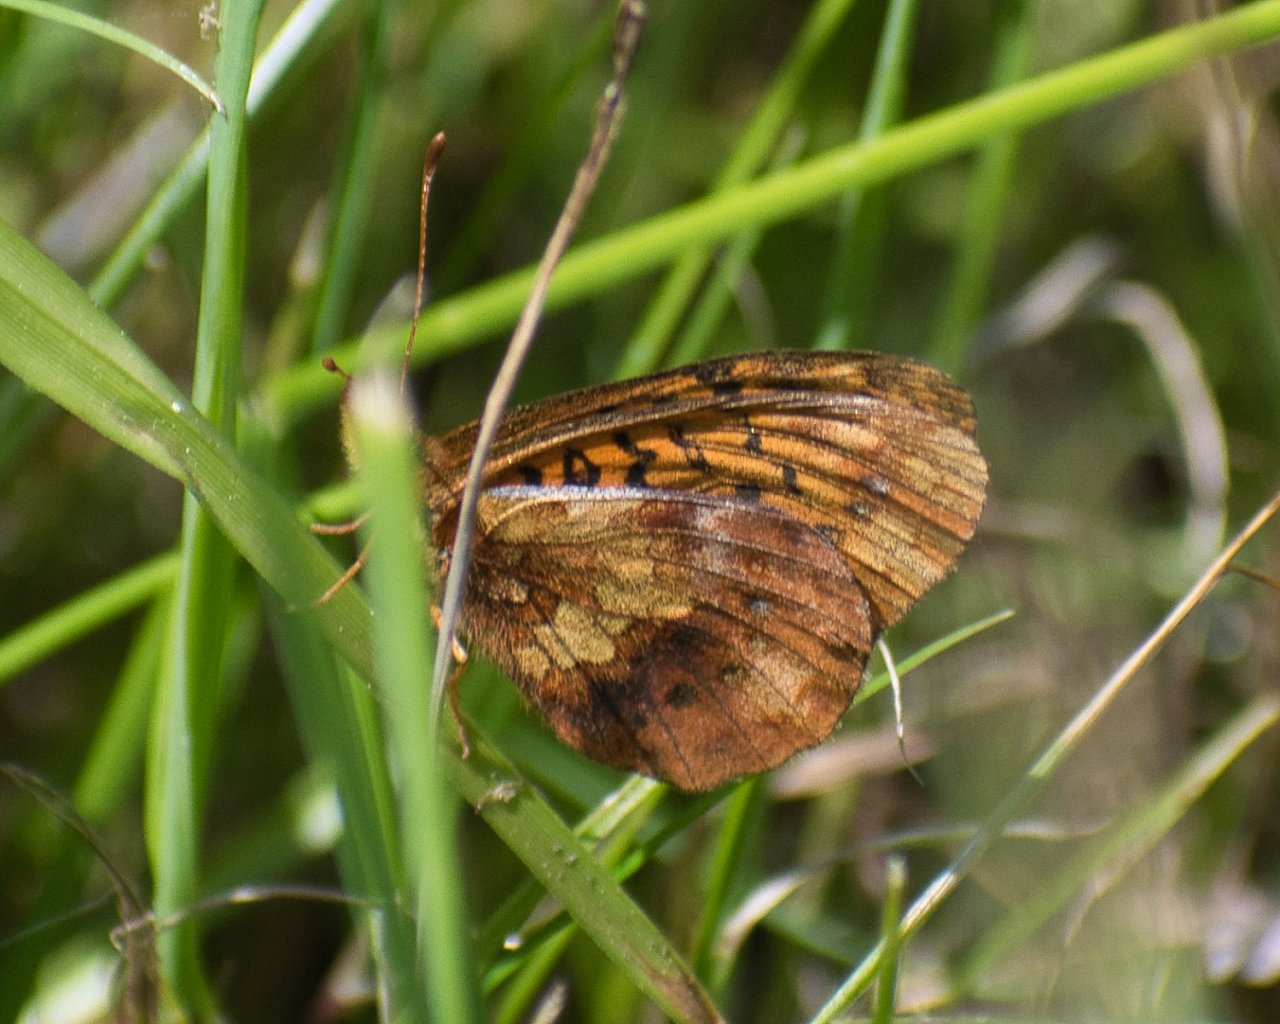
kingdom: Animalia
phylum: Arthropoda
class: Insecta
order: Lepidoptera
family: Nymphalidae
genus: Boloria
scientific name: Boloria epithore
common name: Pacific Fritillary
